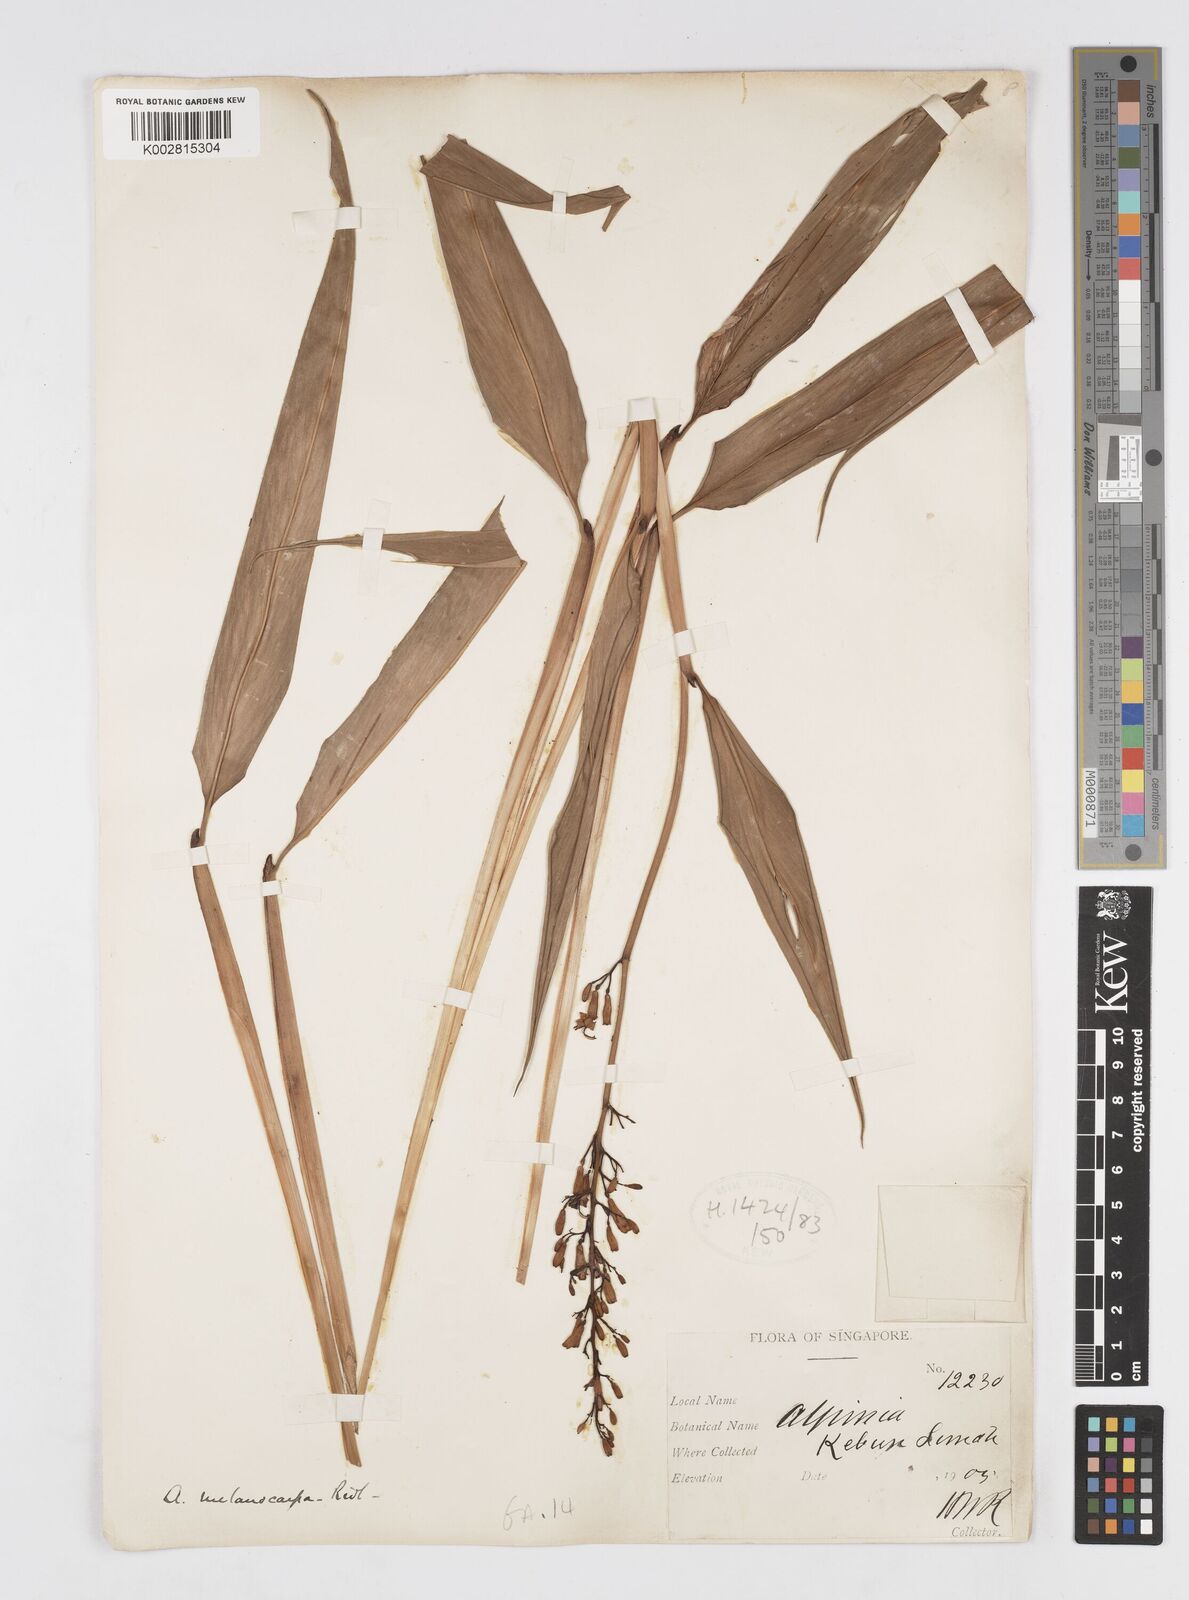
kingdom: Plantae
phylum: Tracheophyta
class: Liliopsida
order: Zingiberales
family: Zingiberaceae
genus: Alpinia
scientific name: Alpinia valetoniana
